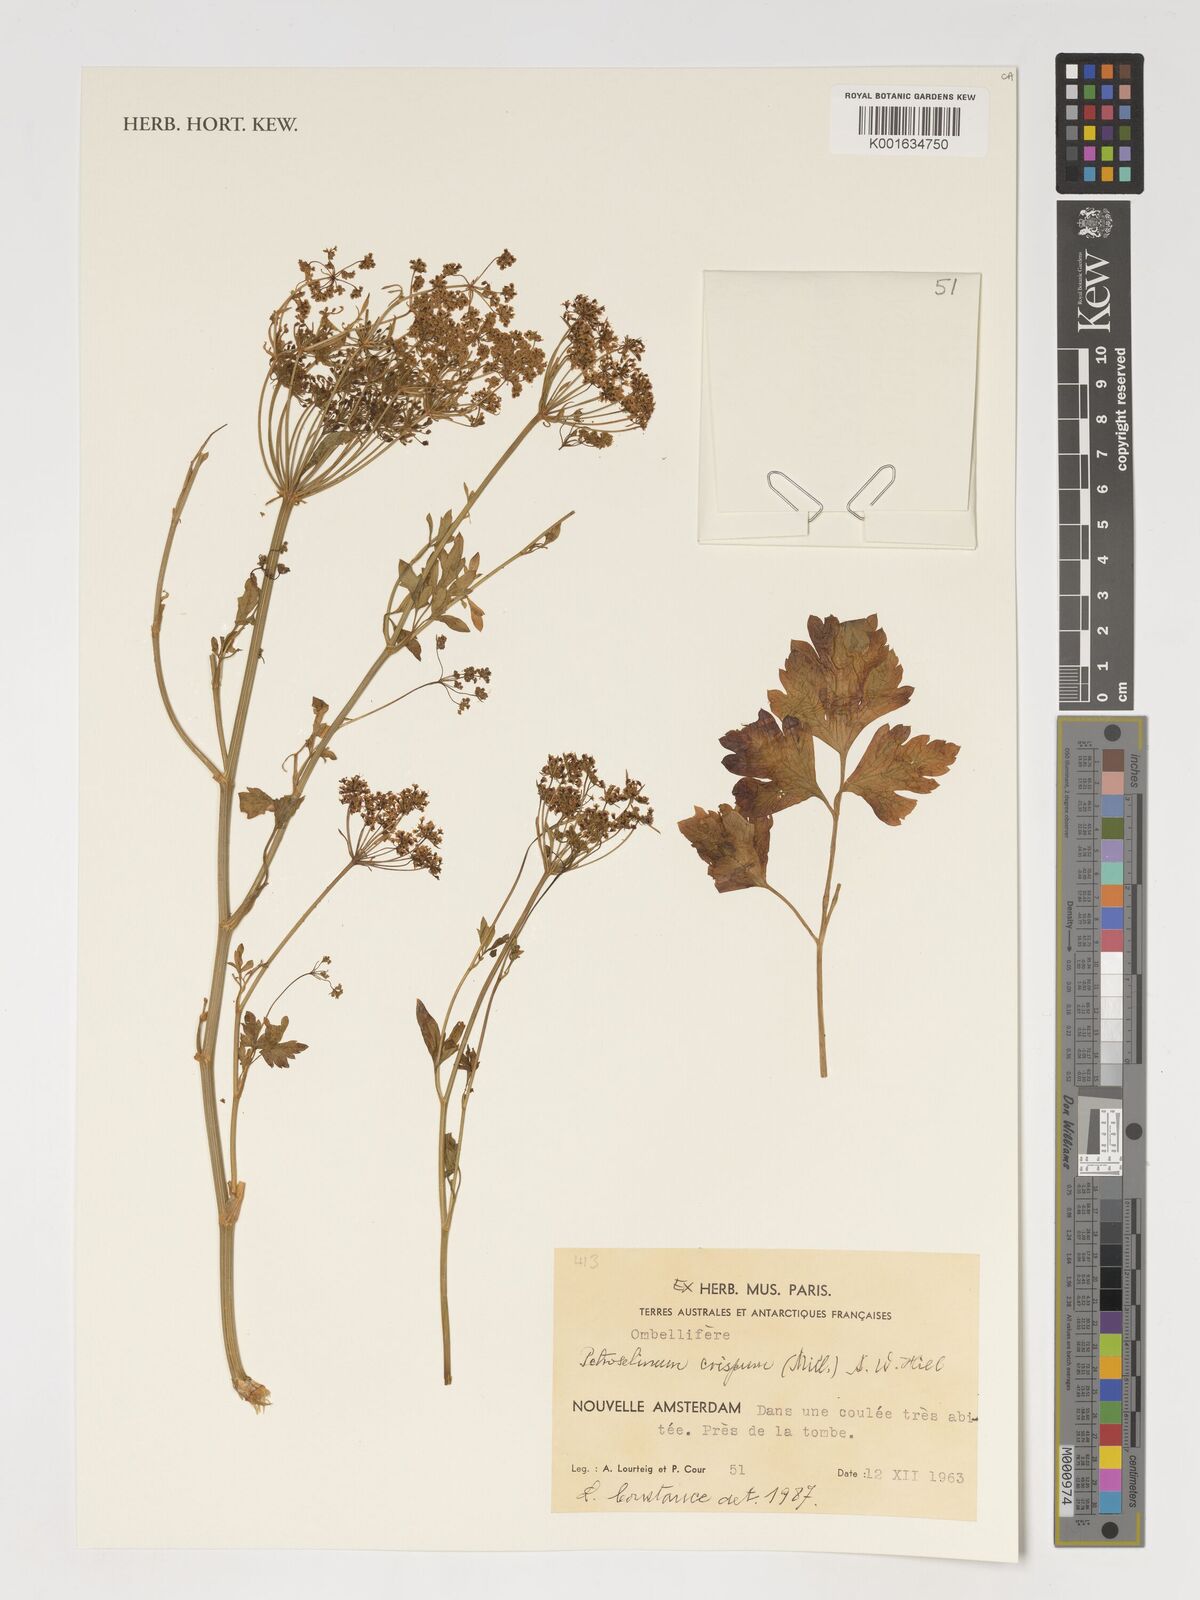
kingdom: Plantae
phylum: Tracheophyta
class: Magnoliopsida
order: Apiales
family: Apiaceae
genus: Petroselinum
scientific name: Petroselinum crispum
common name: Parsley
